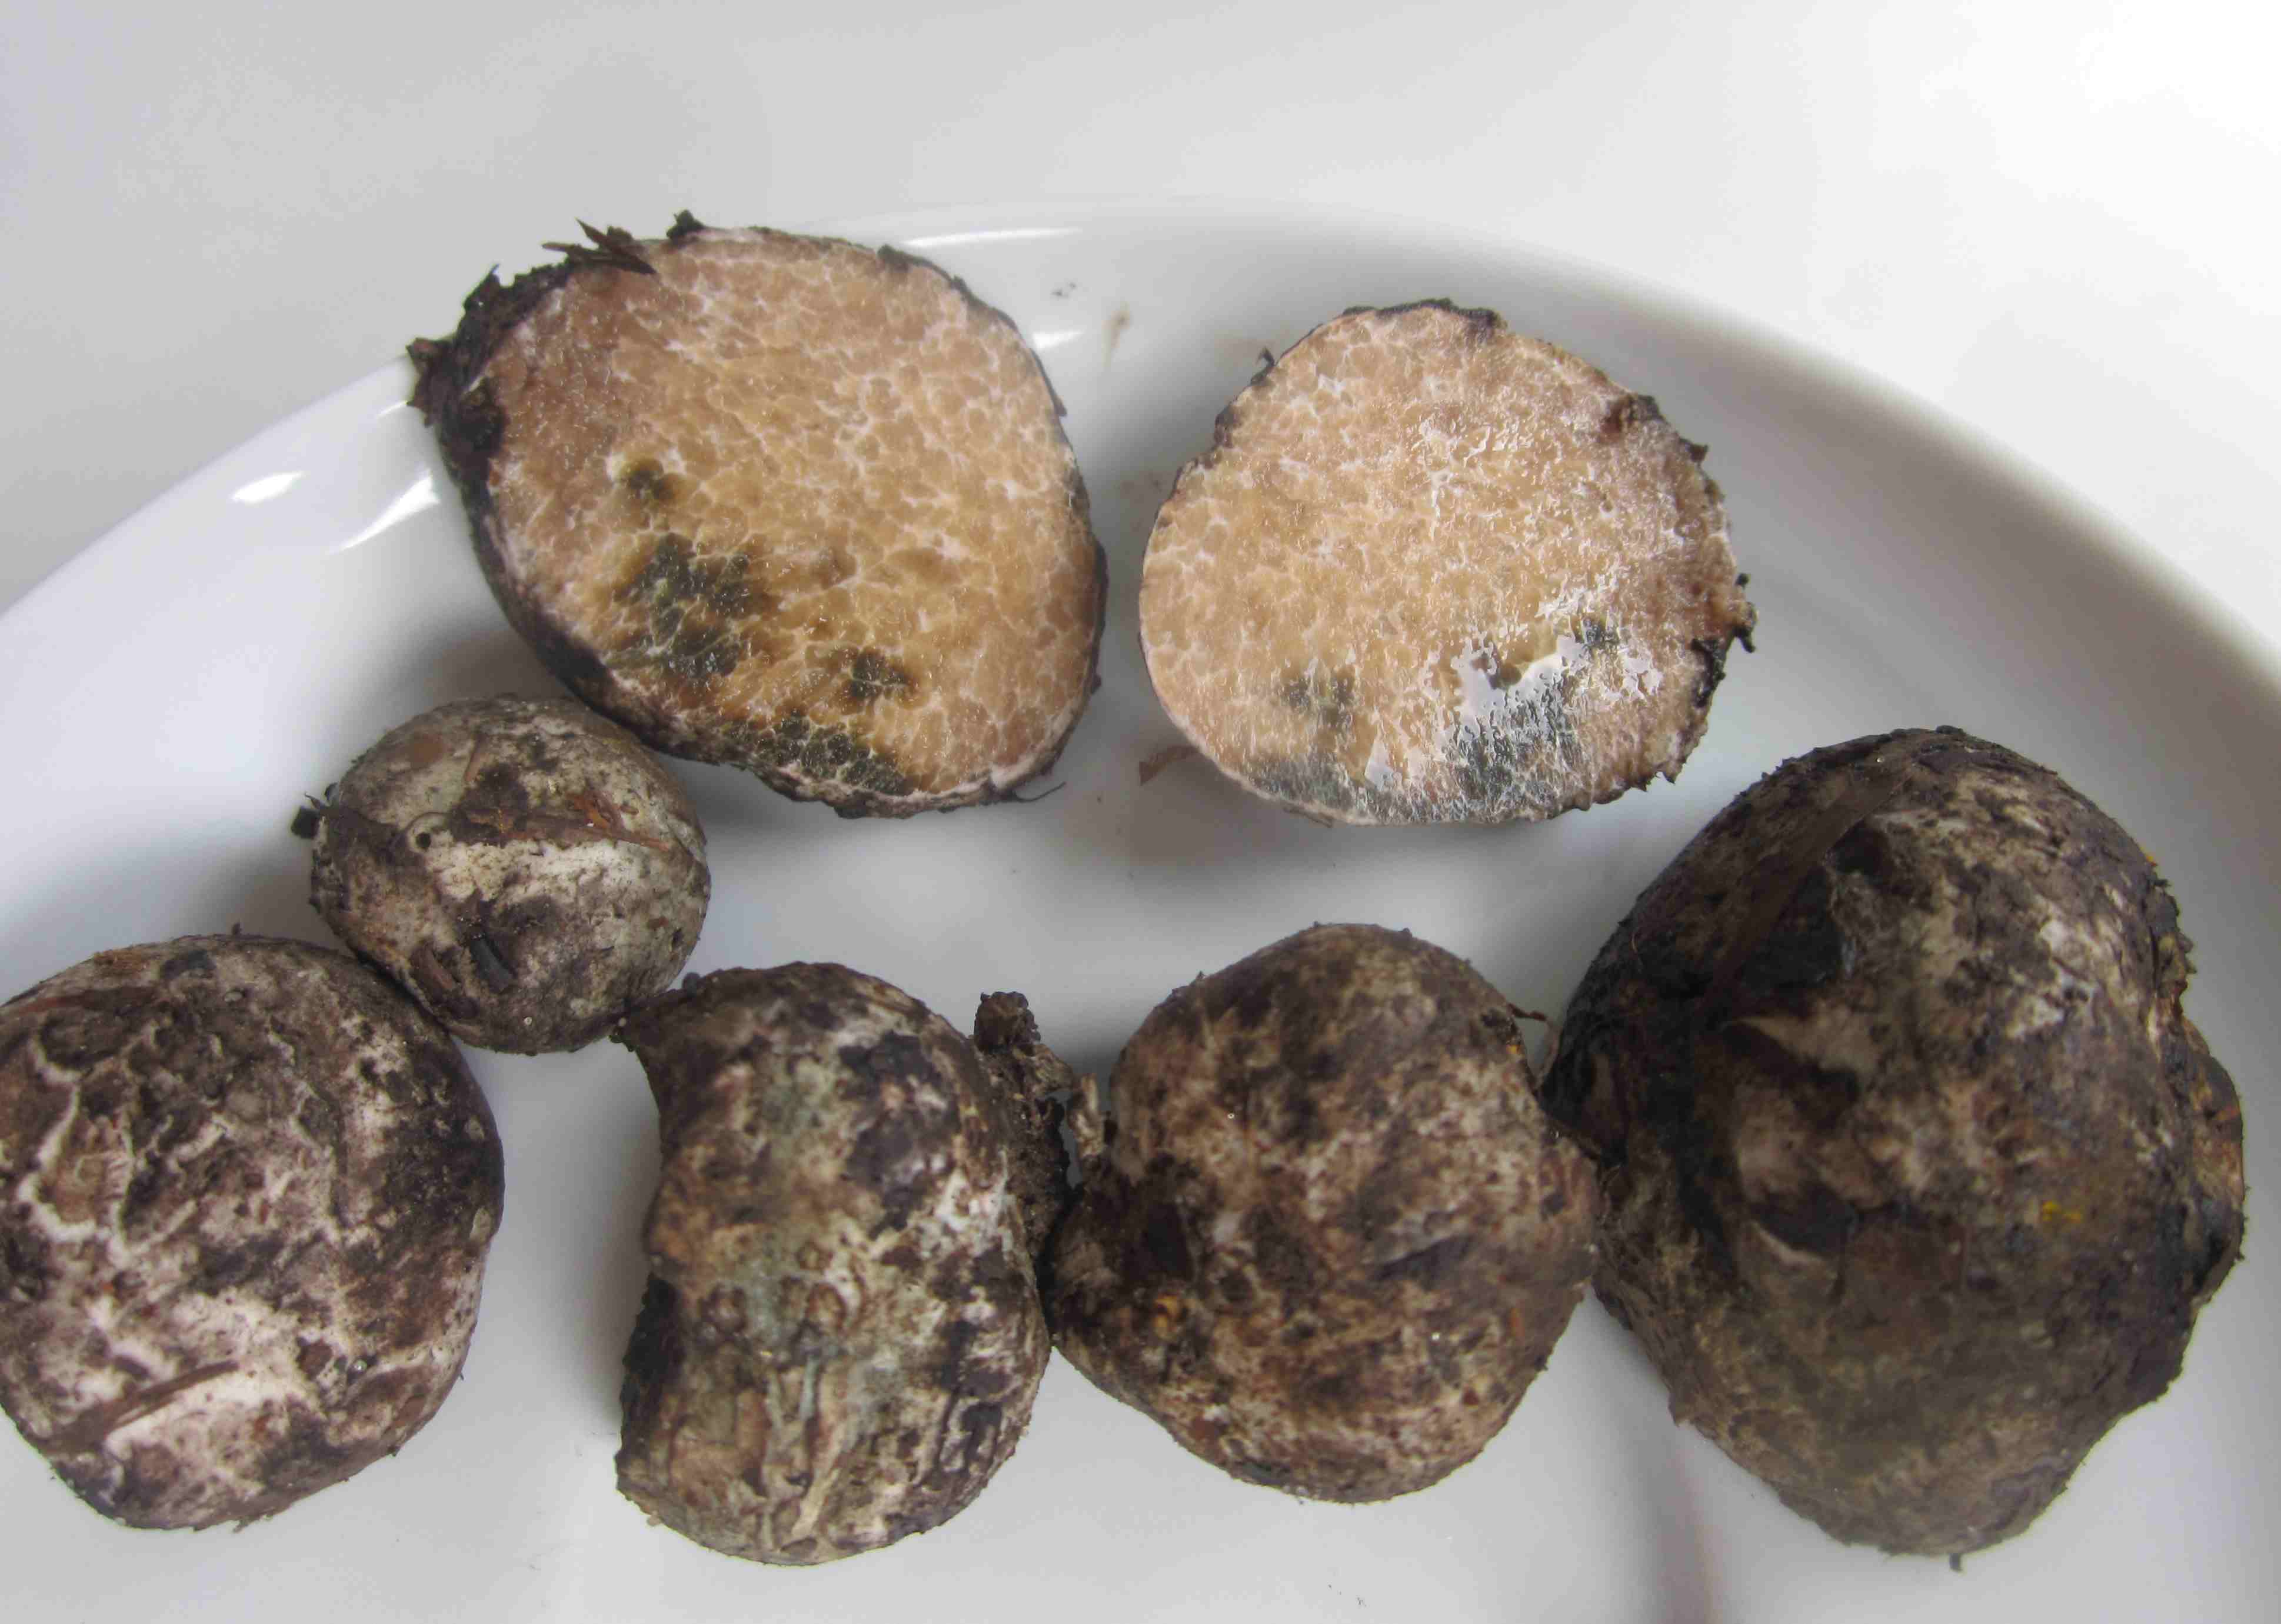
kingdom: Fungi
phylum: Basidiomycota
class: Agaricomycetes
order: Boletales
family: Boletaceae
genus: Octaviania
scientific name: Octaviania
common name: løvtrøffel
